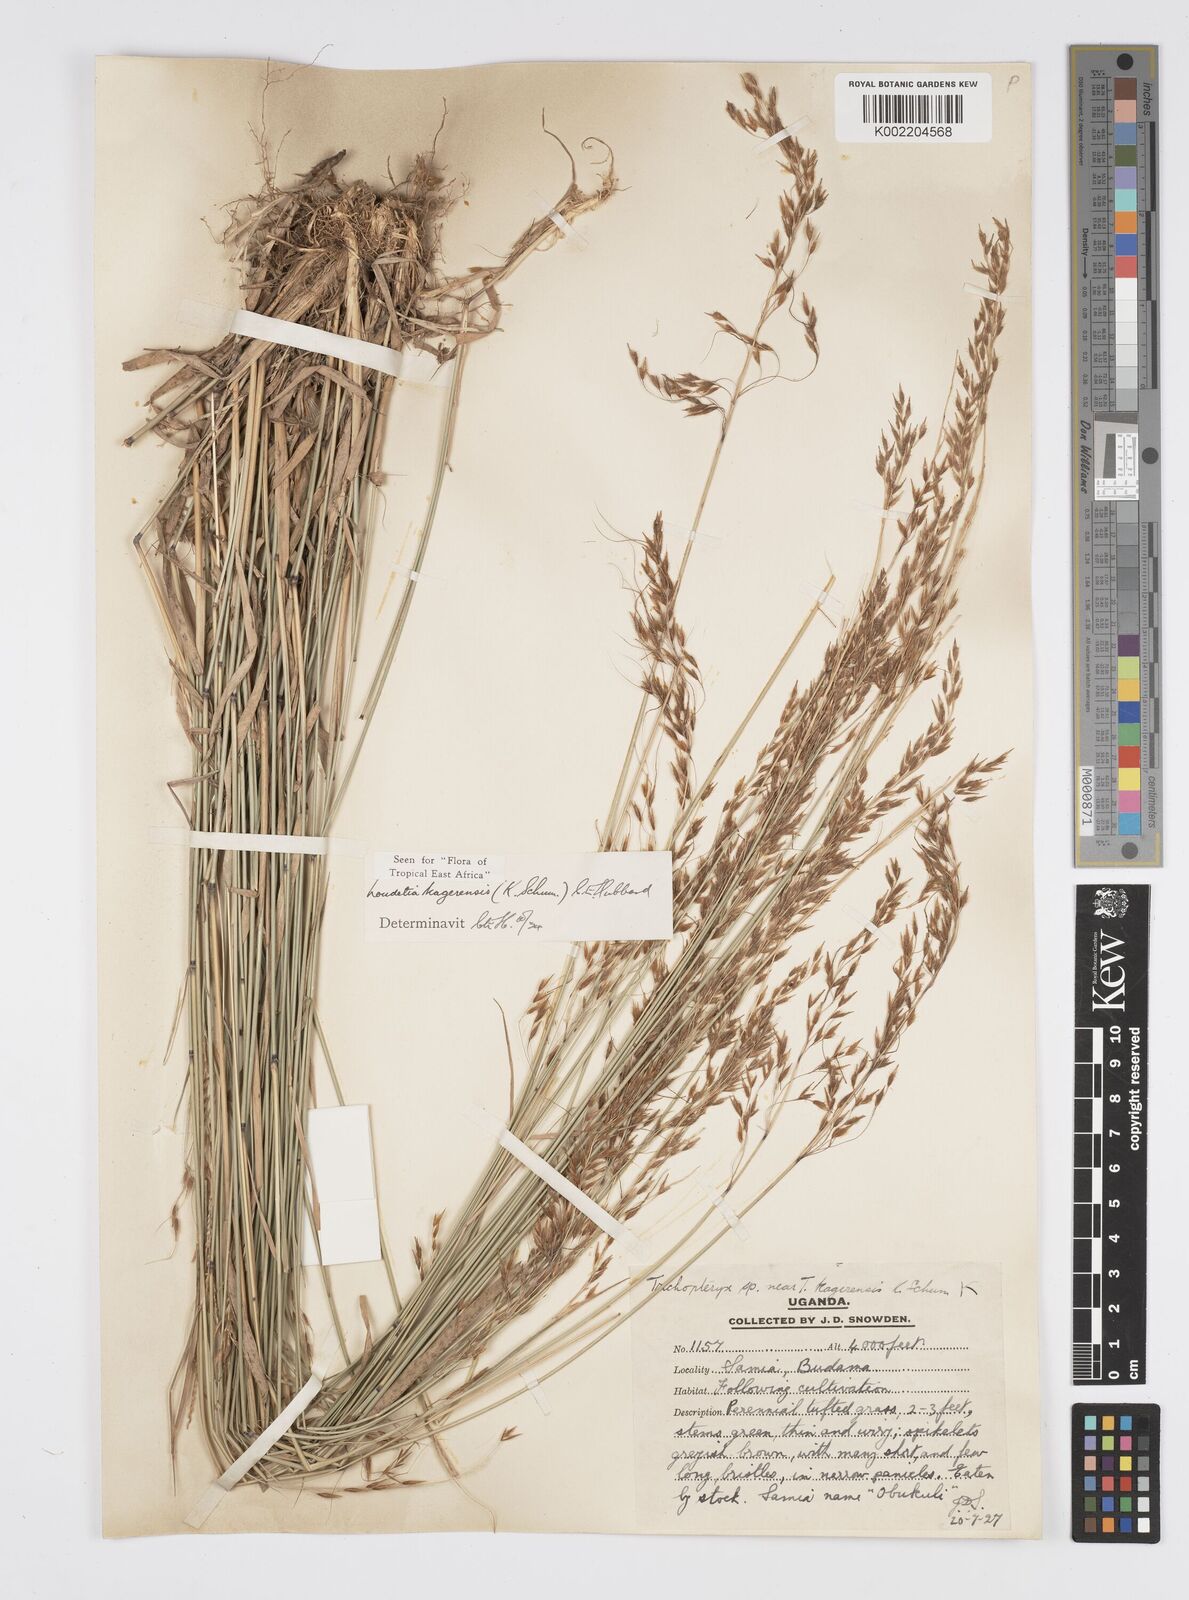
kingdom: Plantae
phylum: Tracheophyta
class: Liliopsida
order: Poales
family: Poaceae
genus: Loudetia
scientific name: Loudetia kagerensis
